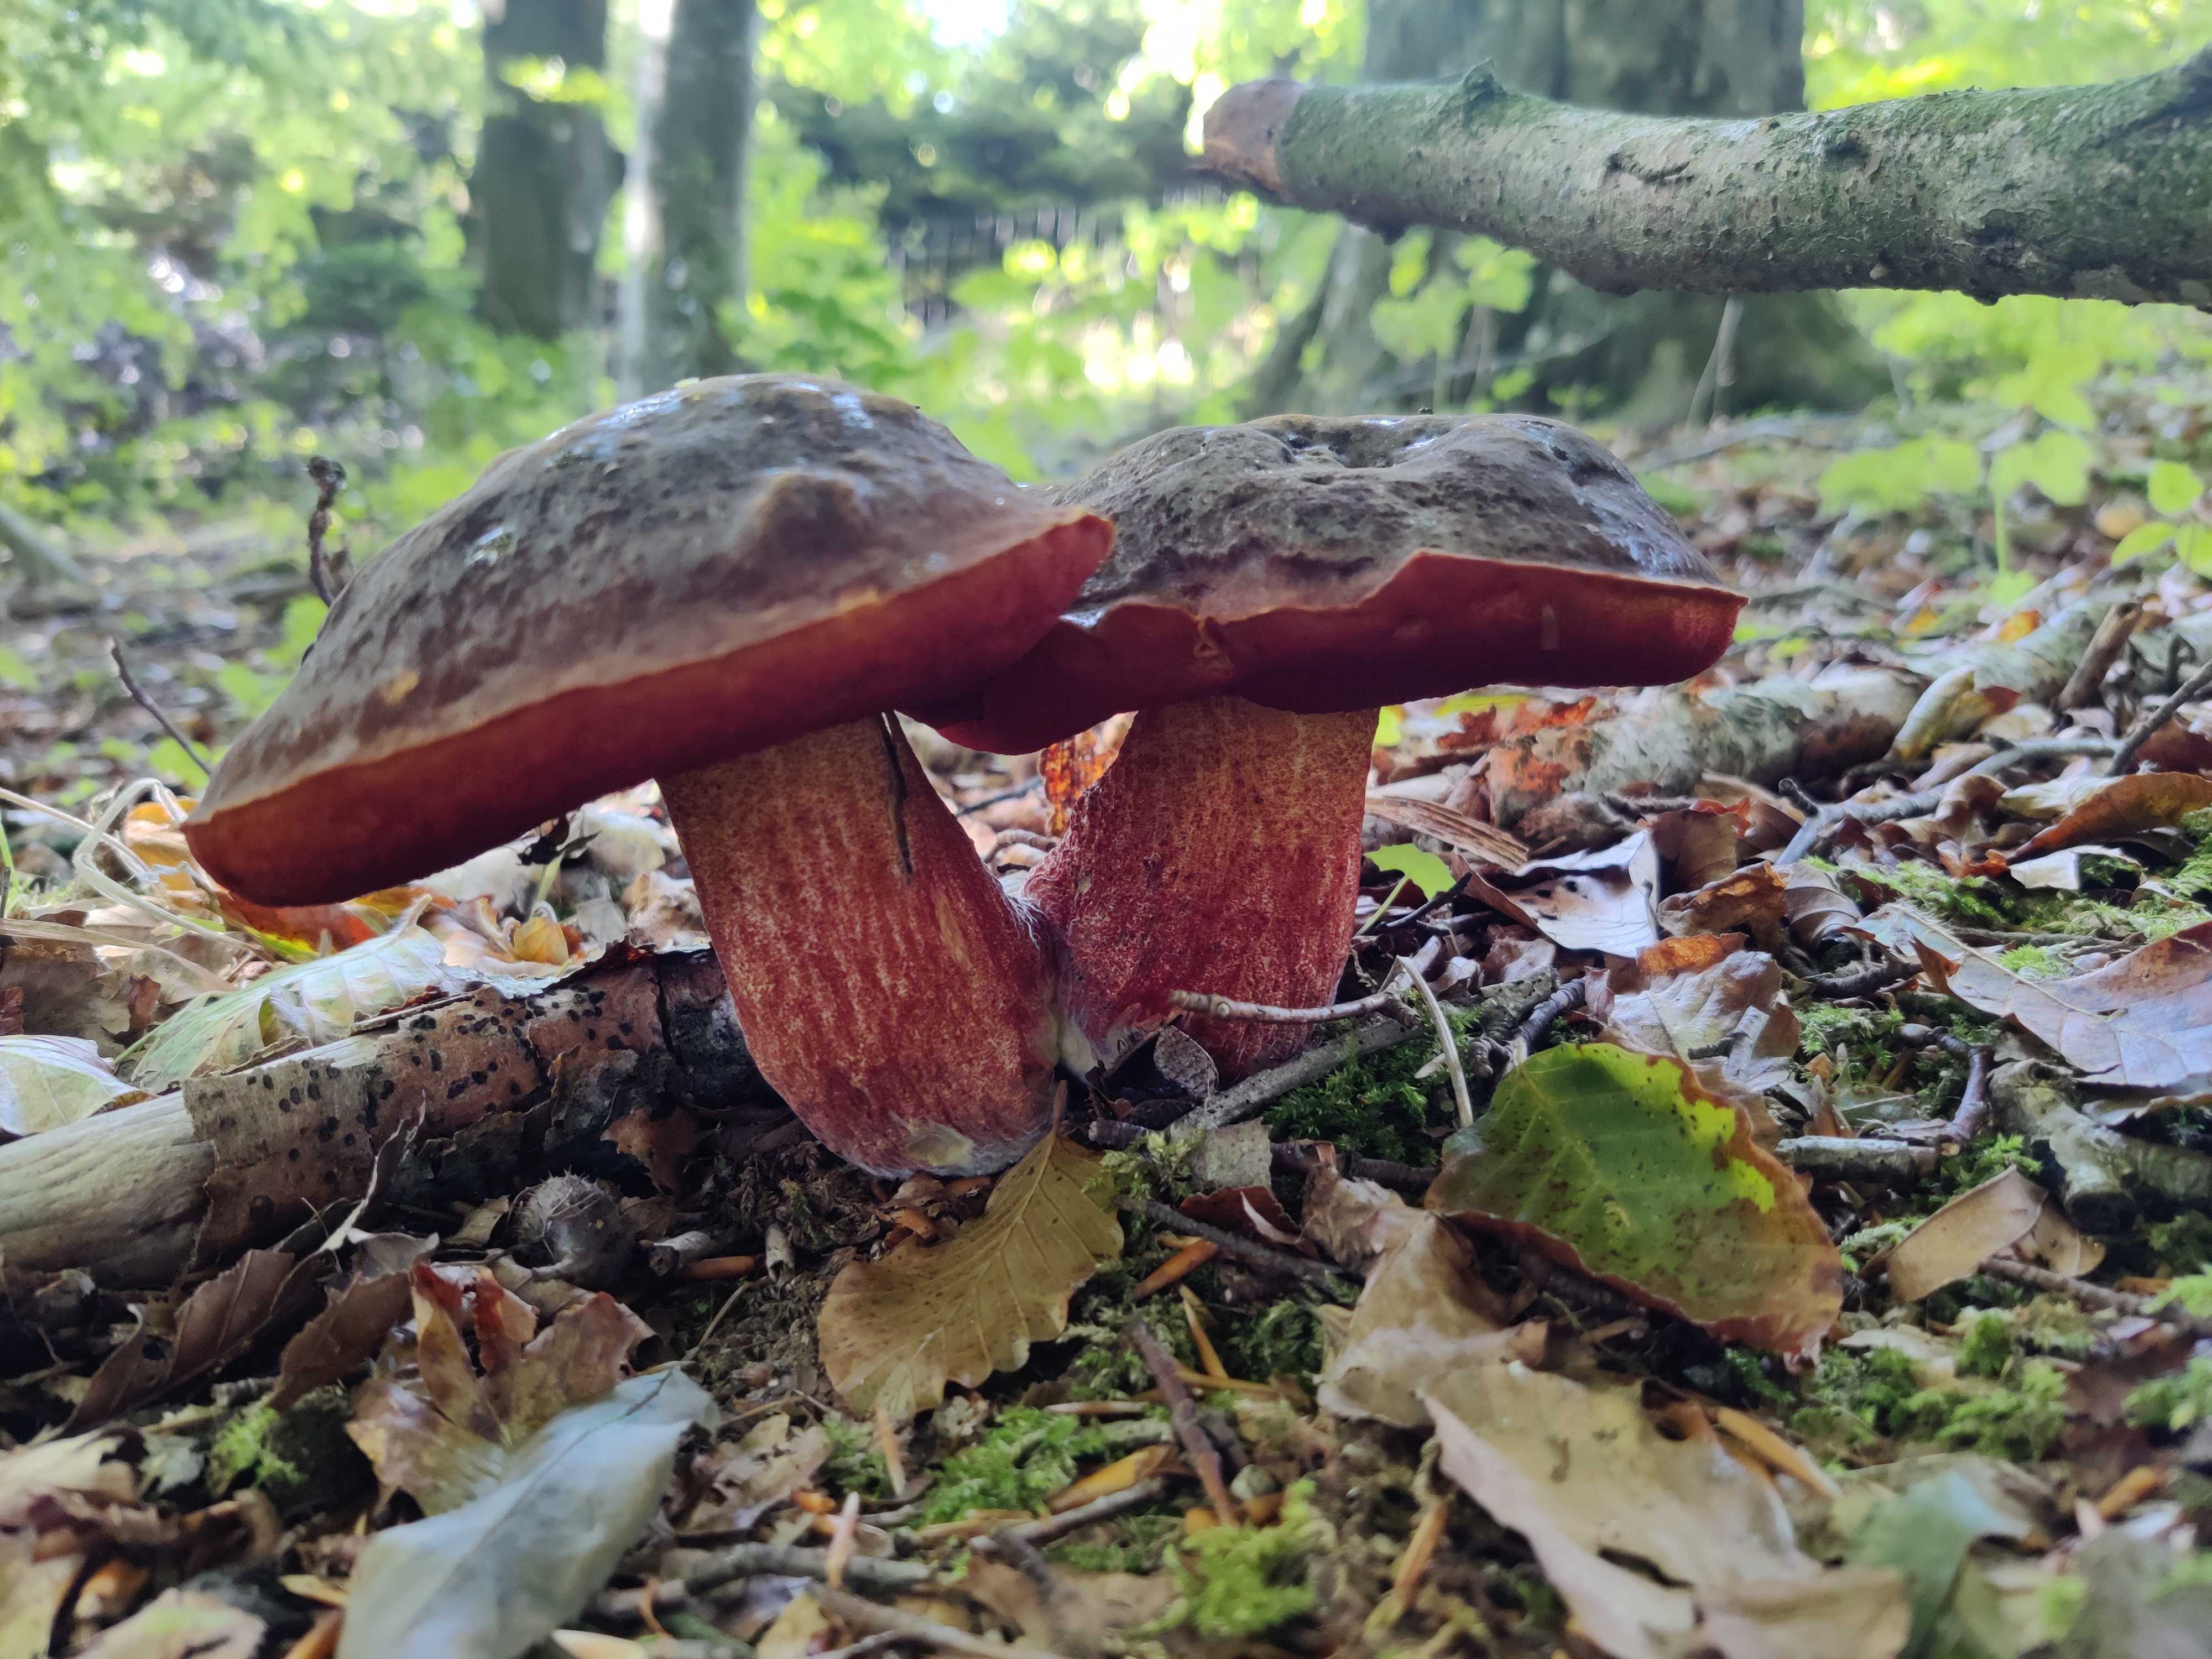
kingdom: Fungi
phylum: Basidiomycota
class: Agaricomycetes
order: Boletales
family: Boletaceae
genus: Neoboletus
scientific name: Neoboletus erythropus
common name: punktstokket indigorørhat
